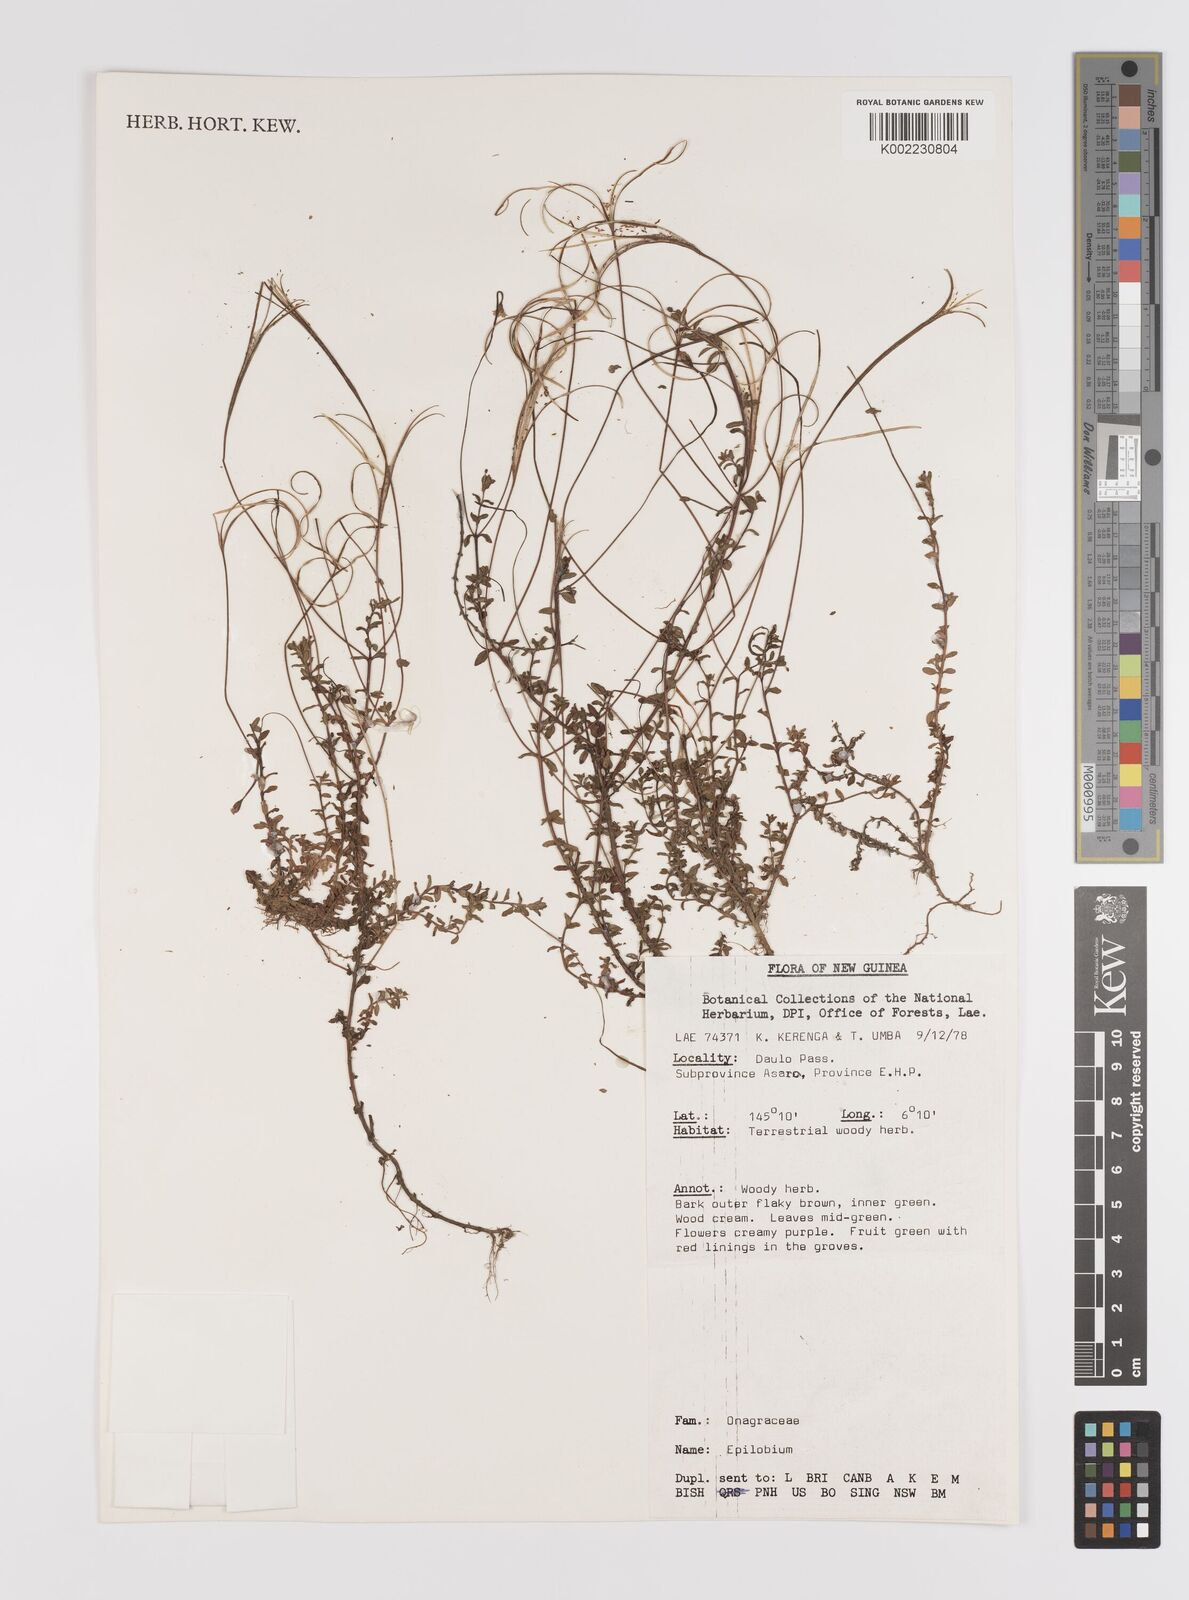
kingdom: Plantae
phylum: Tracheophyta
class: Magnoliopsida
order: Myrtales
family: Onagraceae
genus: Epilobium
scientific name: Epilobium
